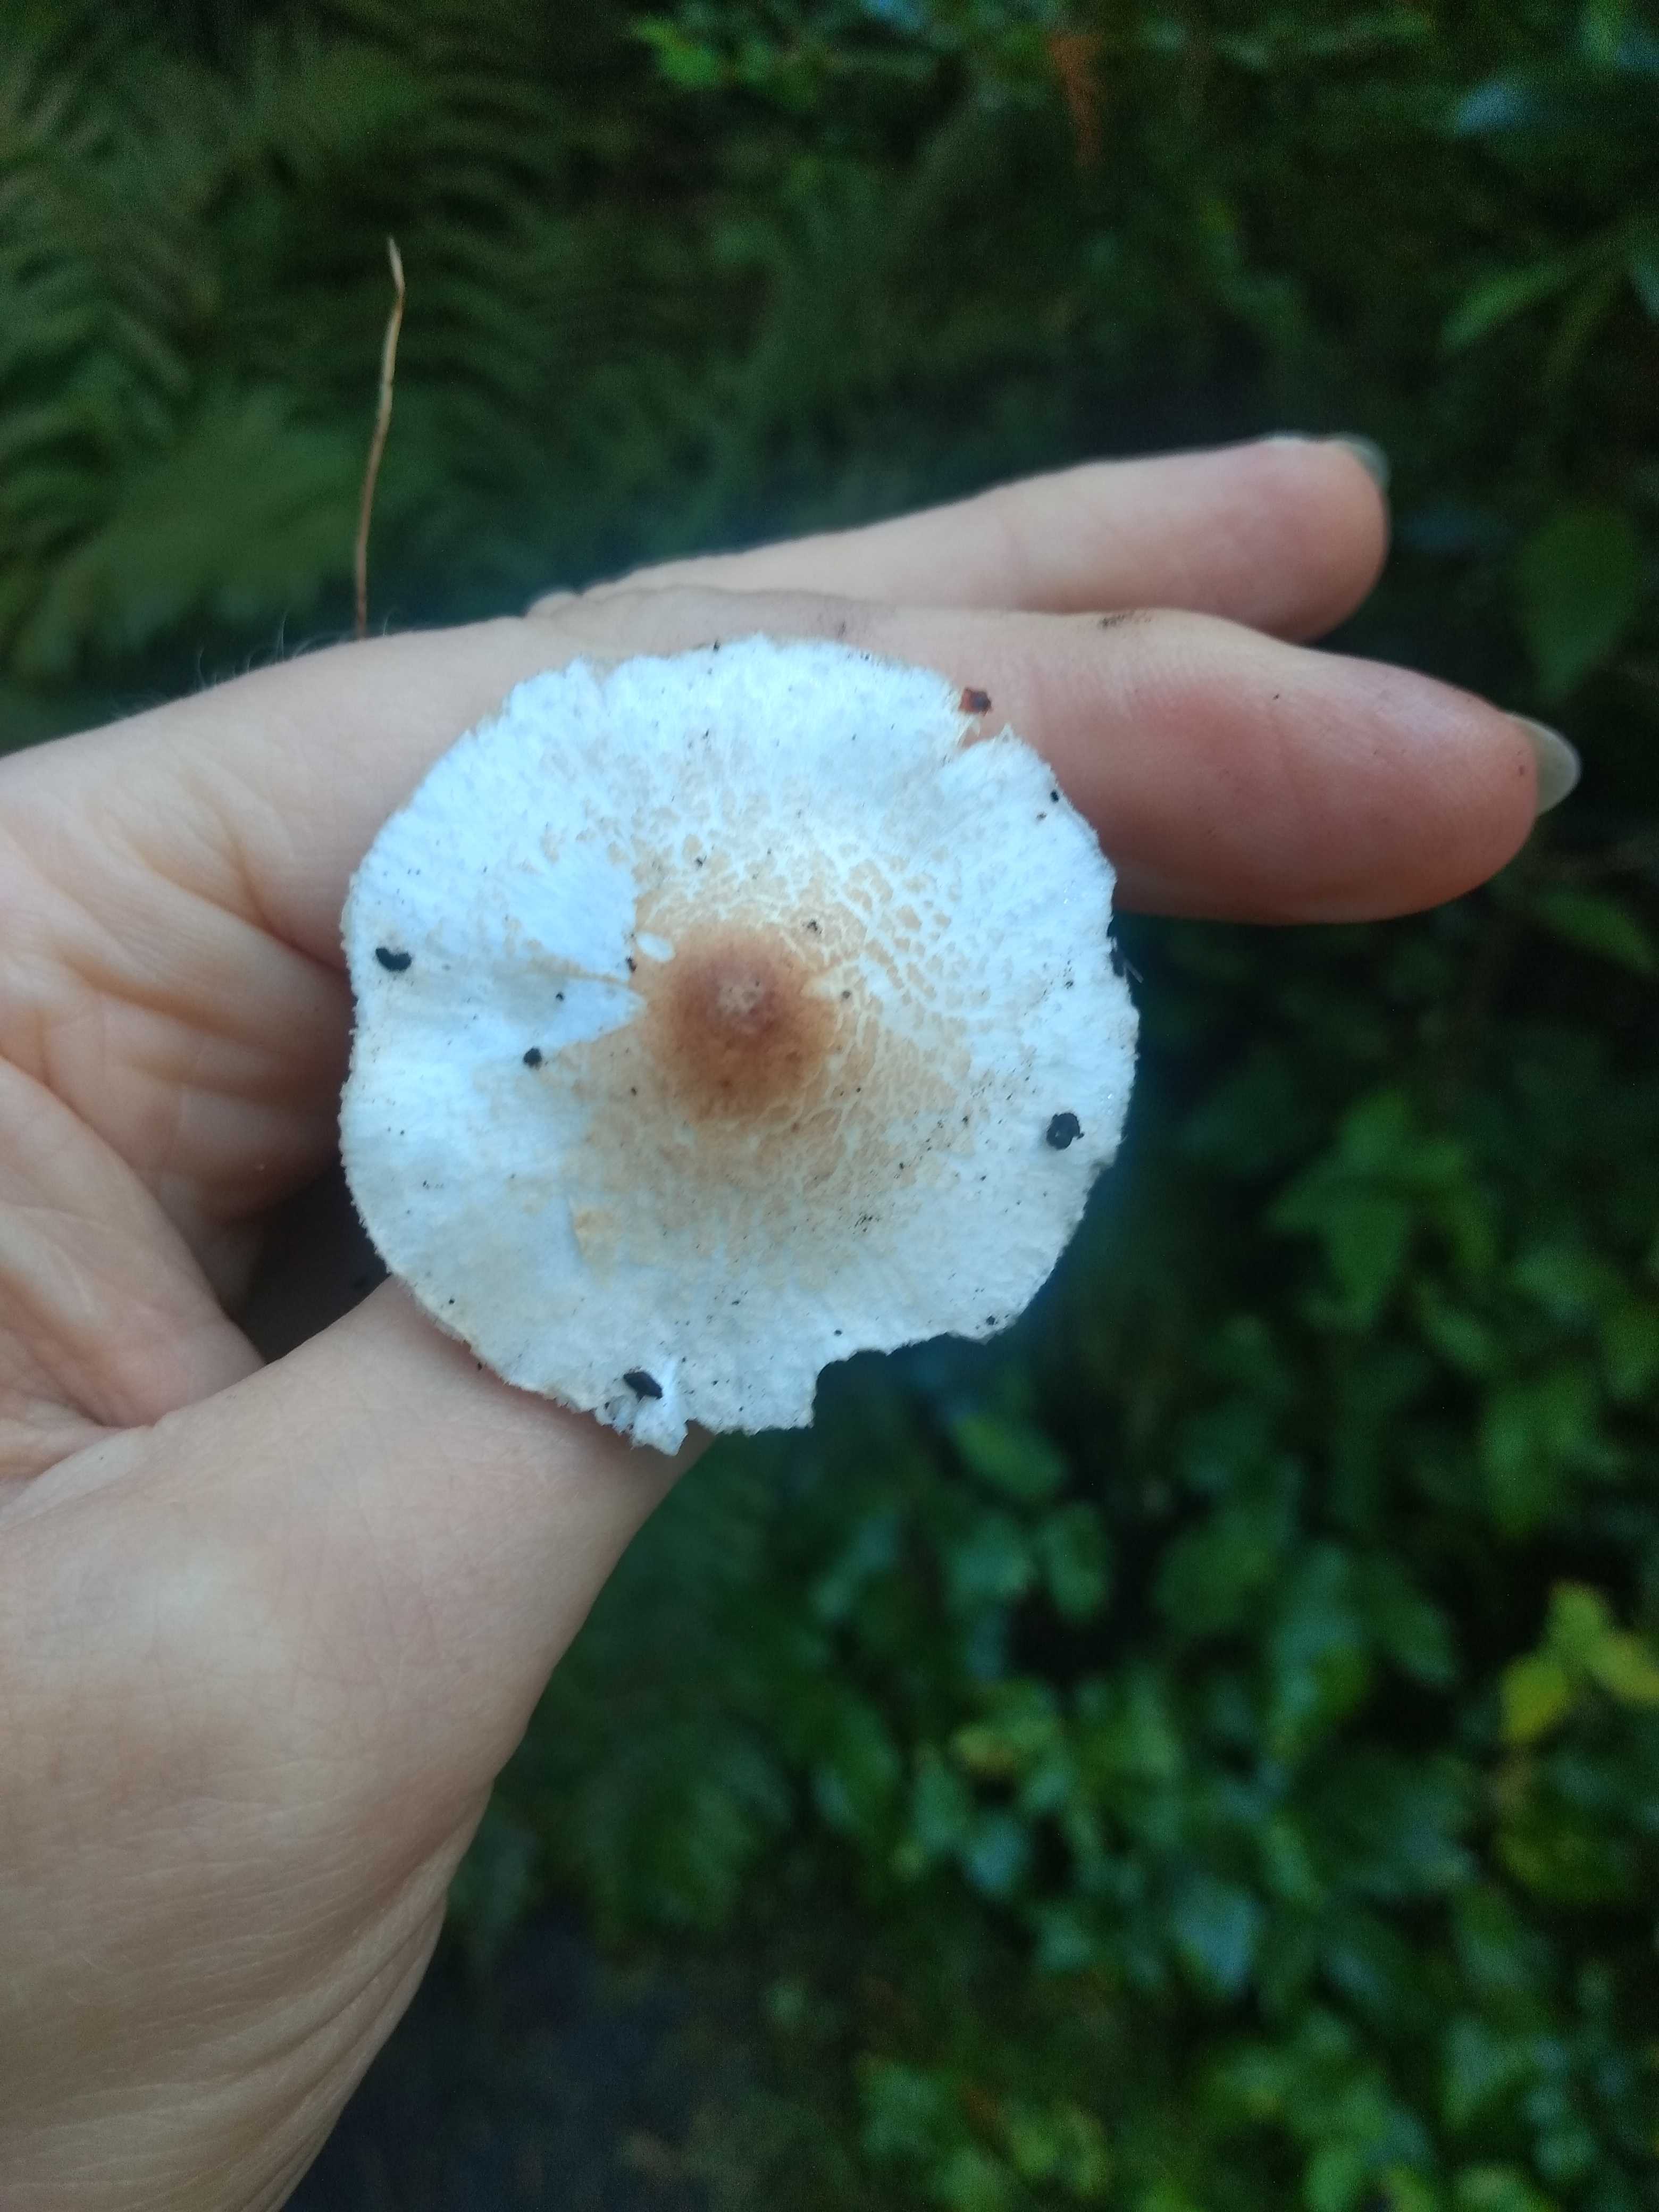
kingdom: Fungi
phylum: Basidiomycota
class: Agaricomycetes
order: Agaricales
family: Agaricaceae
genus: Lepiota
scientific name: Lepiota cristata
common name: stinkende parasolhat
